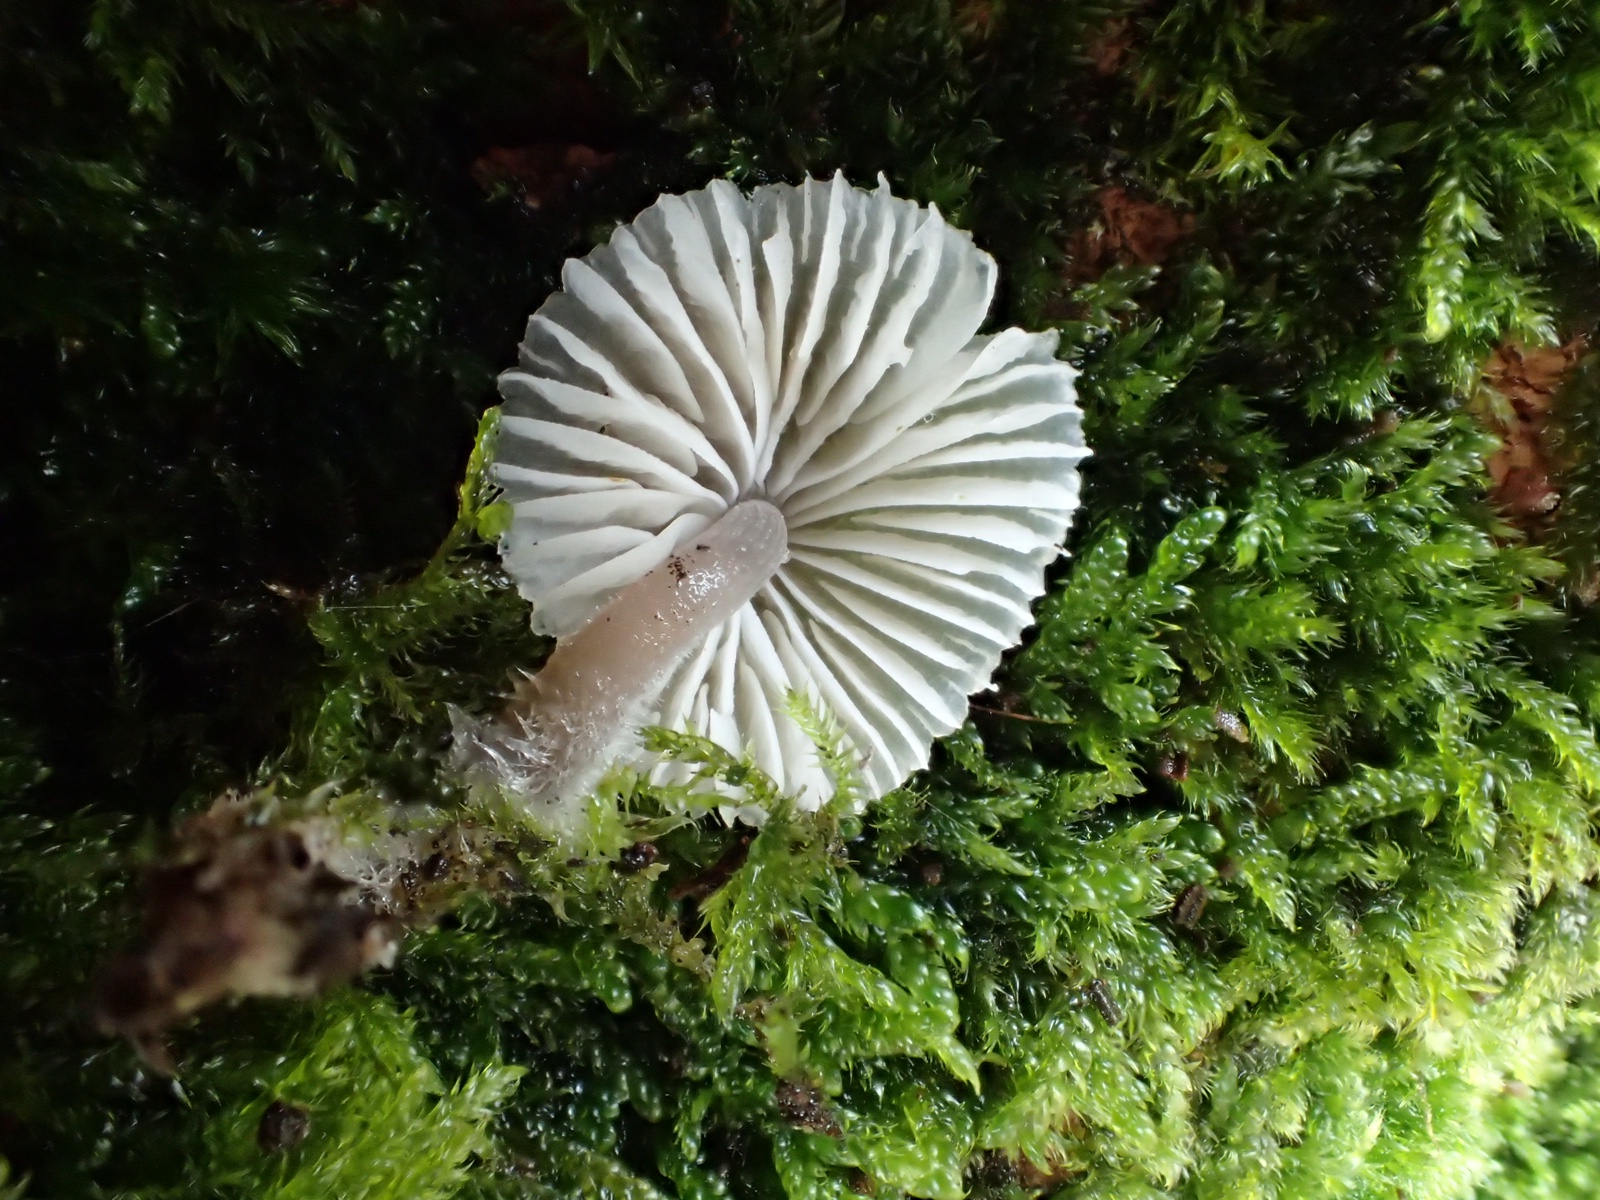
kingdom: Fungi
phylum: Basidiomycota
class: Agaricomycetes
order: Agaricales
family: Mycenaceae
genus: Mycena
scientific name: Mycena
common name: huesvamp
